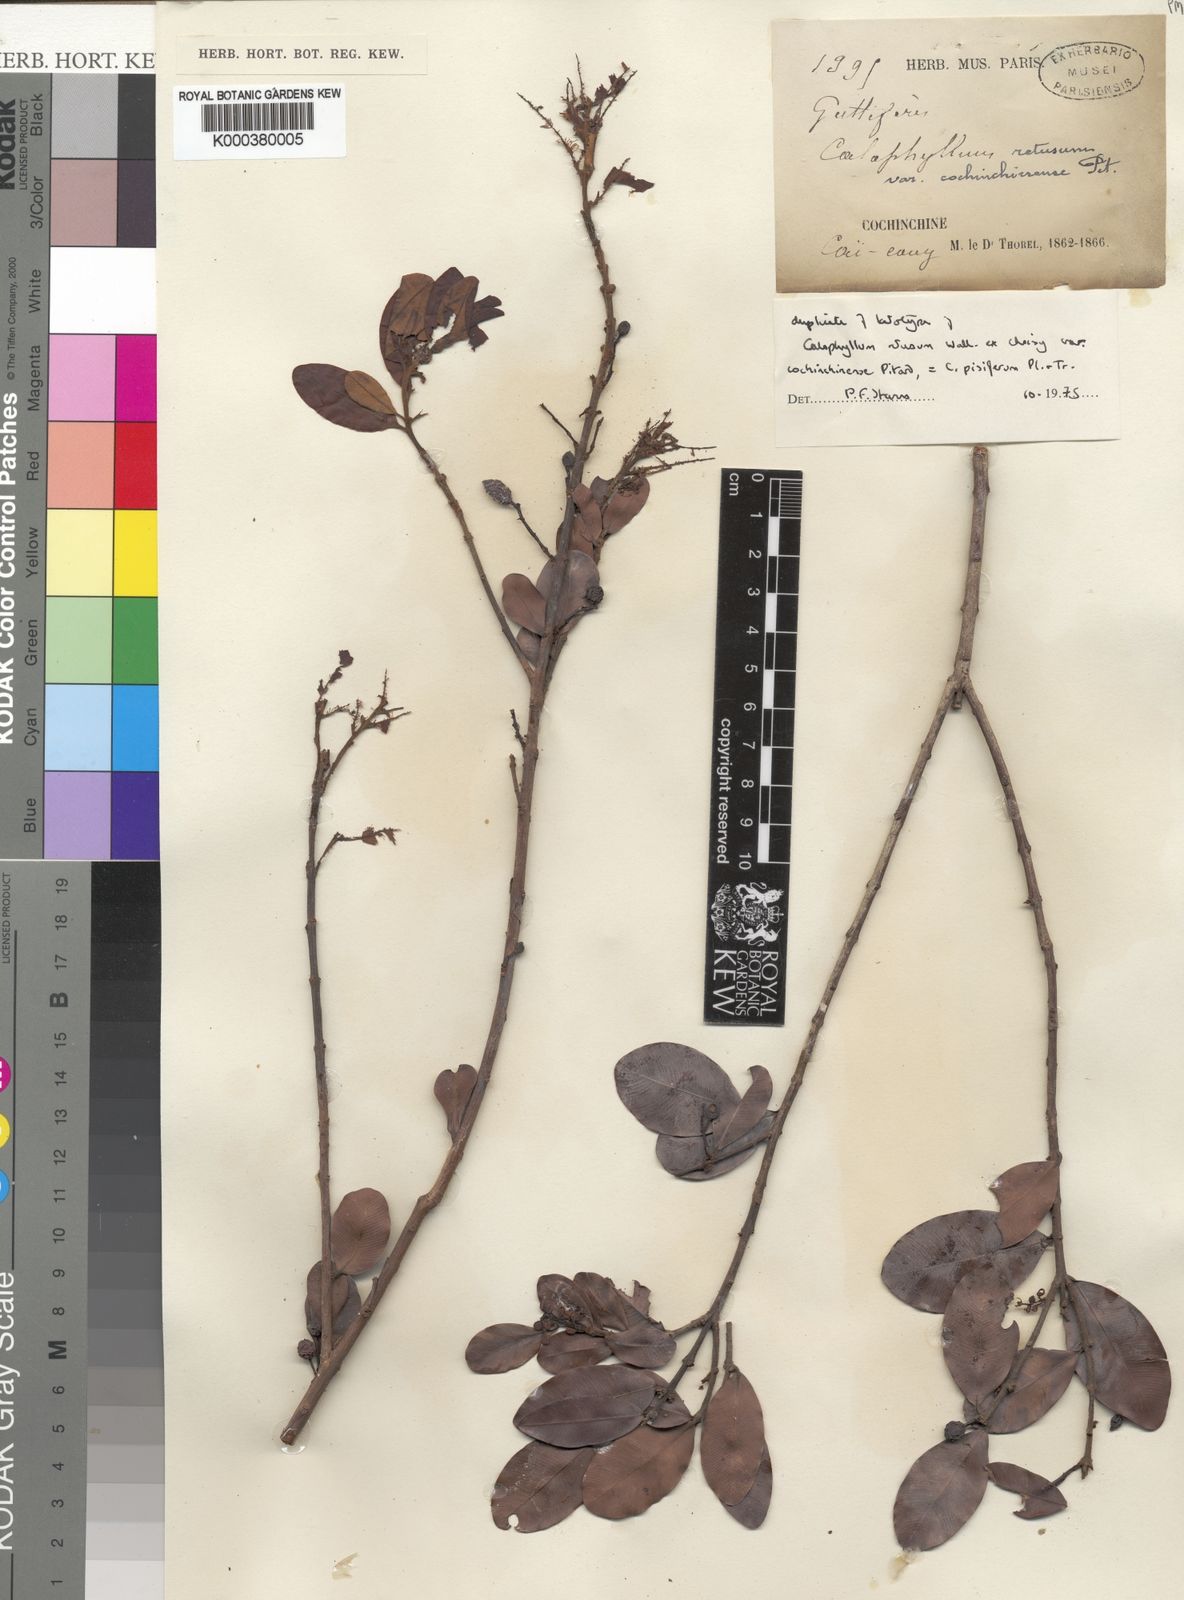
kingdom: Plantae
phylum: Tracheophyta
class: Magnoliopsida
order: Malpighiales
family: Calophyllaceae
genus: Calophyllum
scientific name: Calophyllum pisiferum
